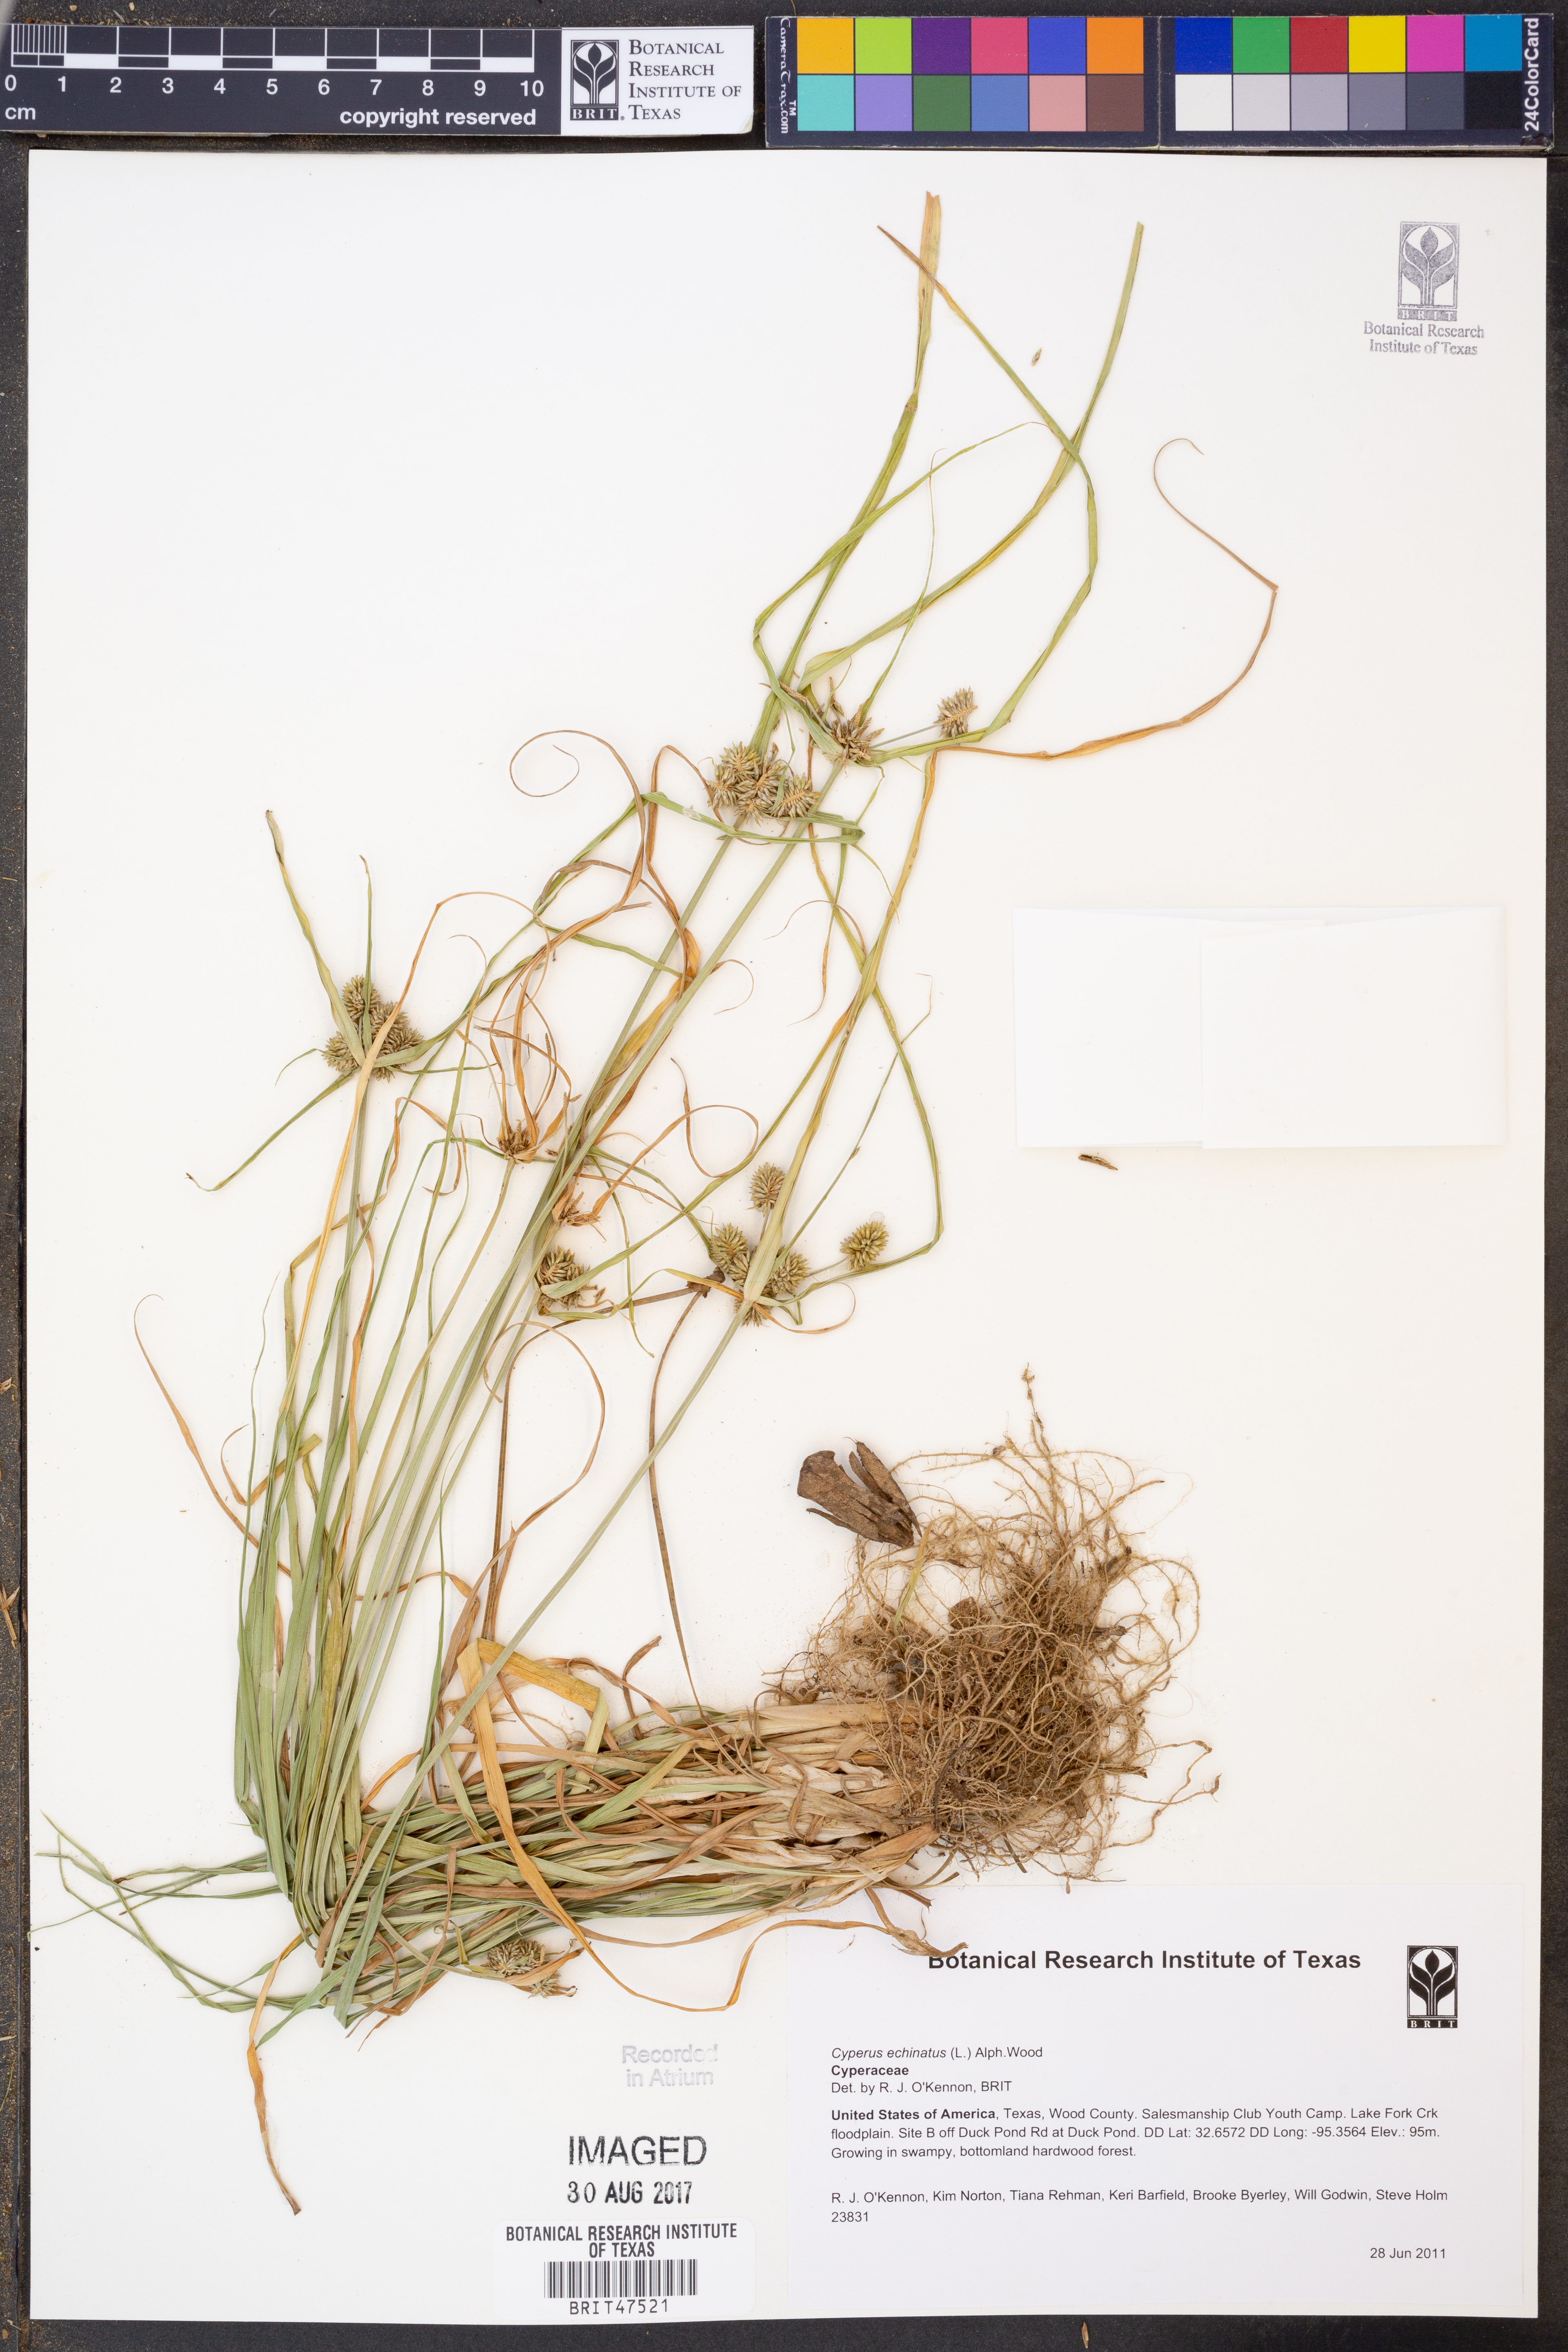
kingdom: Plantae
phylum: Tracheophyta
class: Liliopsida
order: Poales
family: Cyperaceae
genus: Cyperus
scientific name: Cyperus echinatus
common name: Teasel sedge
